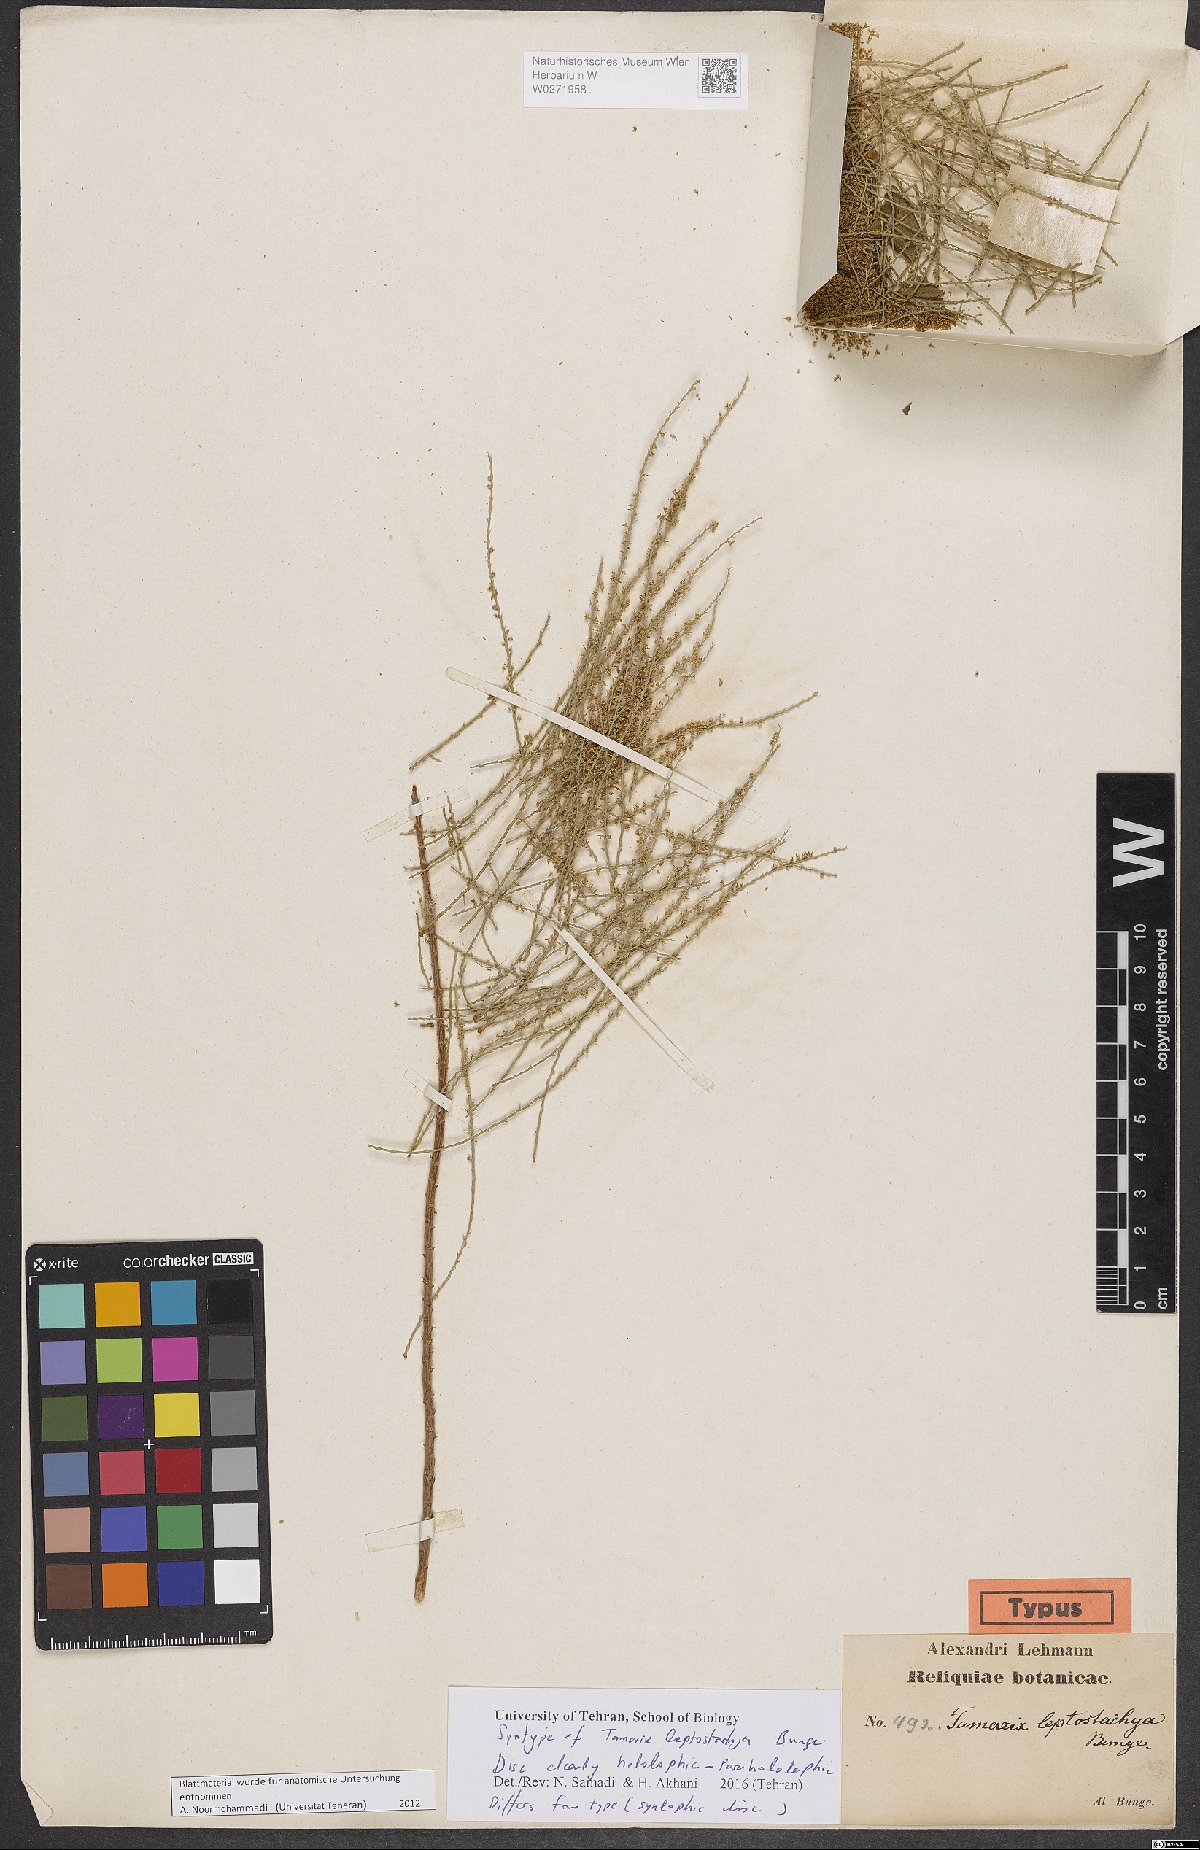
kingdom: Plantae
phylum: Tracheophyta
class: Magnoliopsida
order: Caryophyllales
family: Tamaricaceae
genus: Tamarix
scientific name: Tamarix leptostachya
